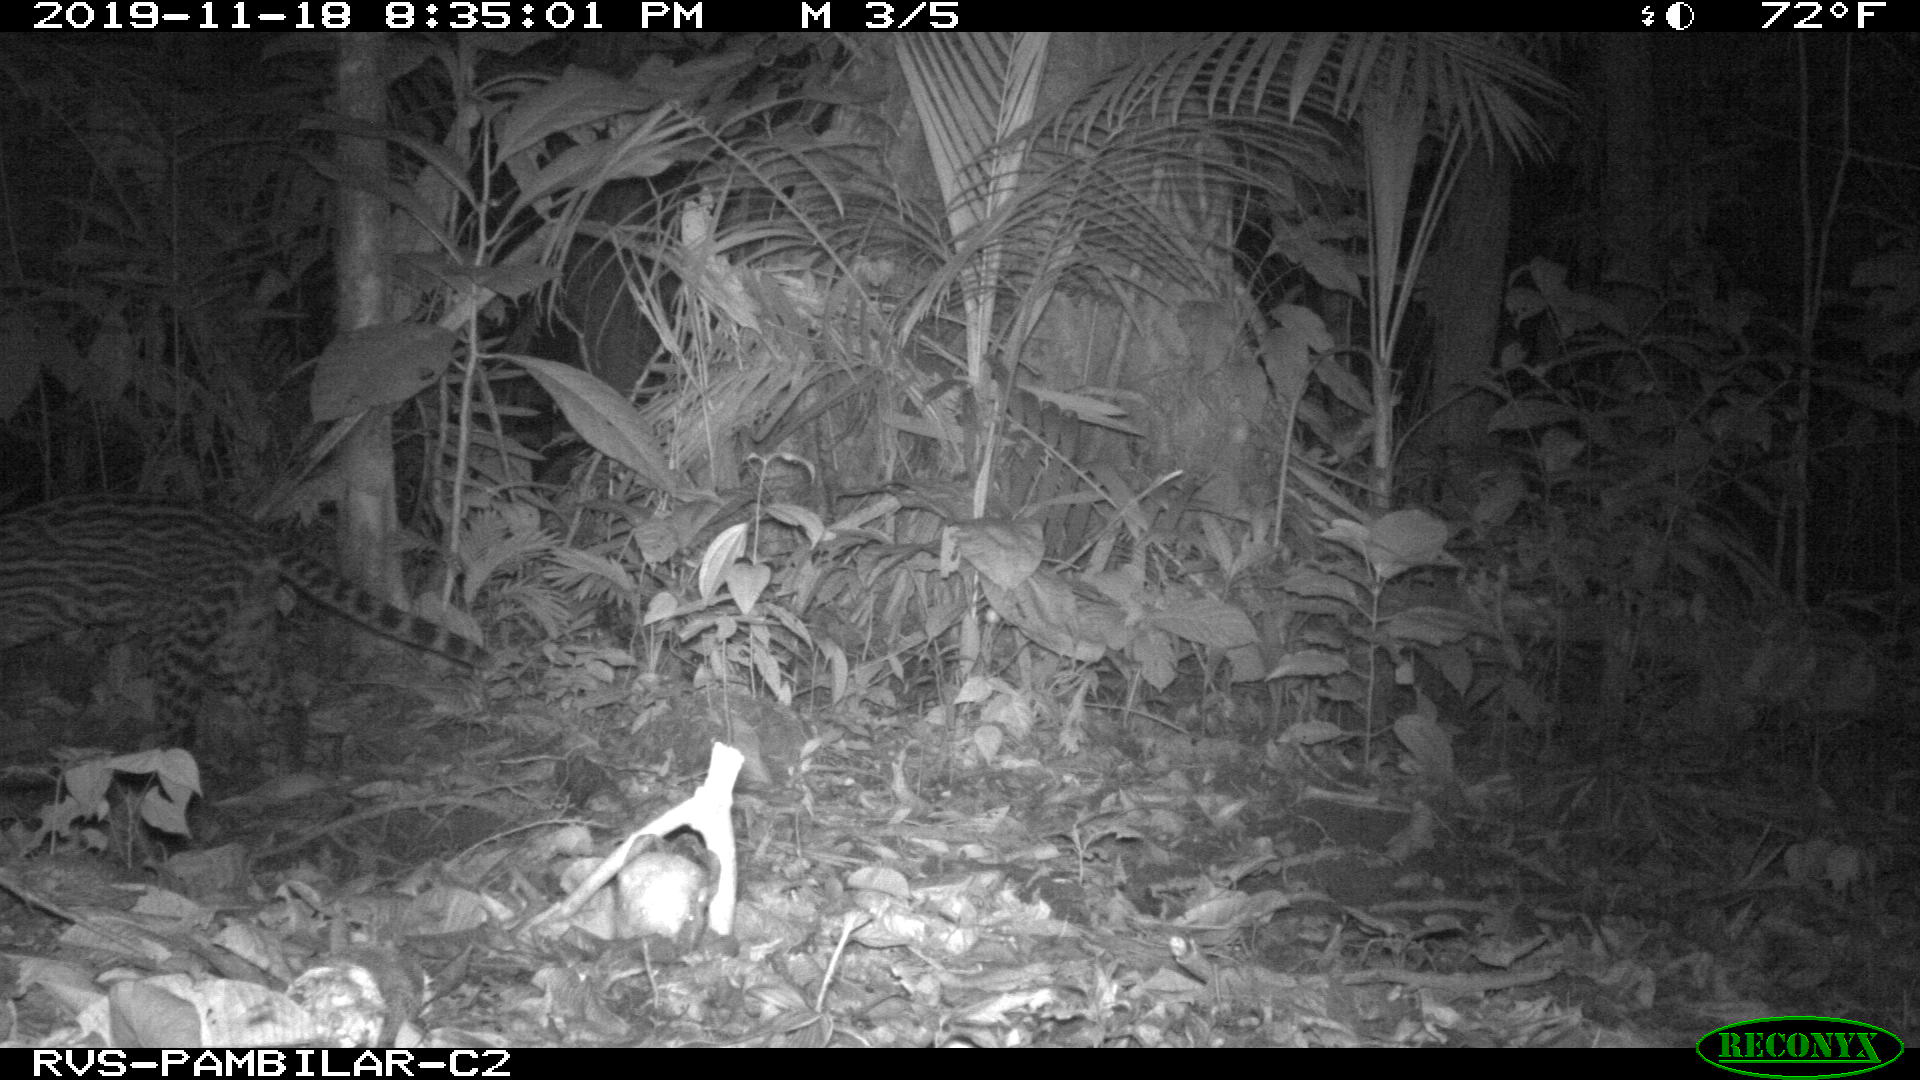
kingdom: Animalia
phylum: Chordata
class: Mammalia
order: Carnivora
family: Felidae
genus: Leopardus
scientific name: Leopardus pardalis
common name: Ocelot
